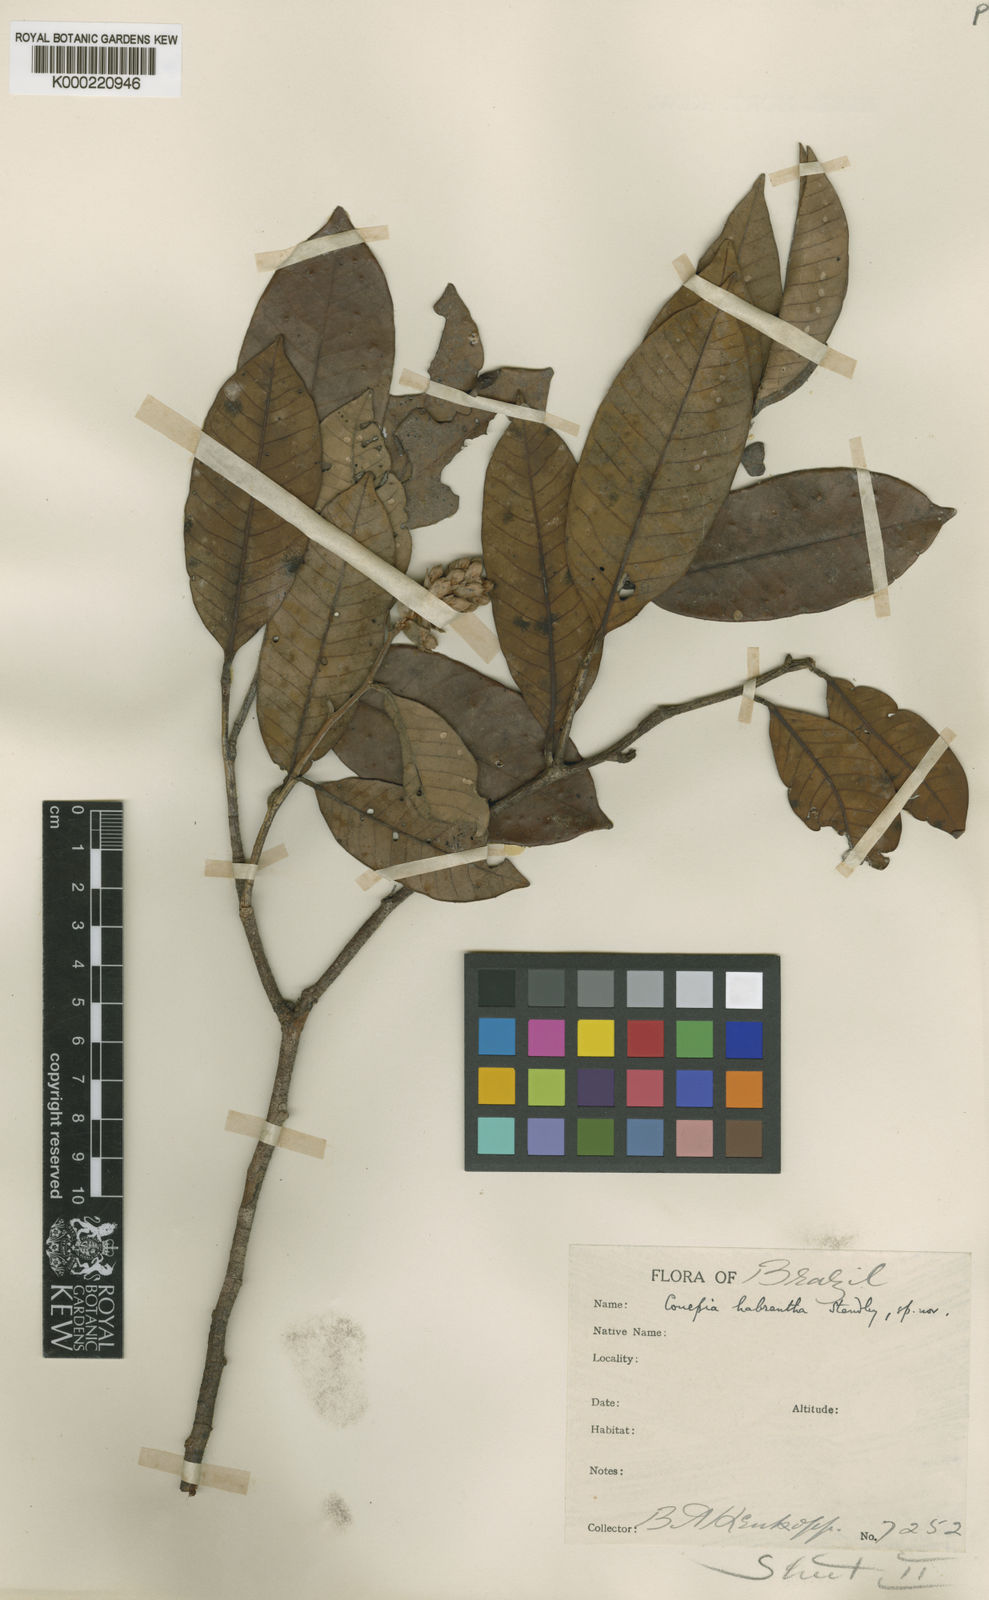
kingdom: Plantae
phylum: Tracheophyta
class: Magnoliopsida
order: Malpighiales
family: Chrysobalanaceae
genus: Couepia
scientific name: Couepia habrantha
